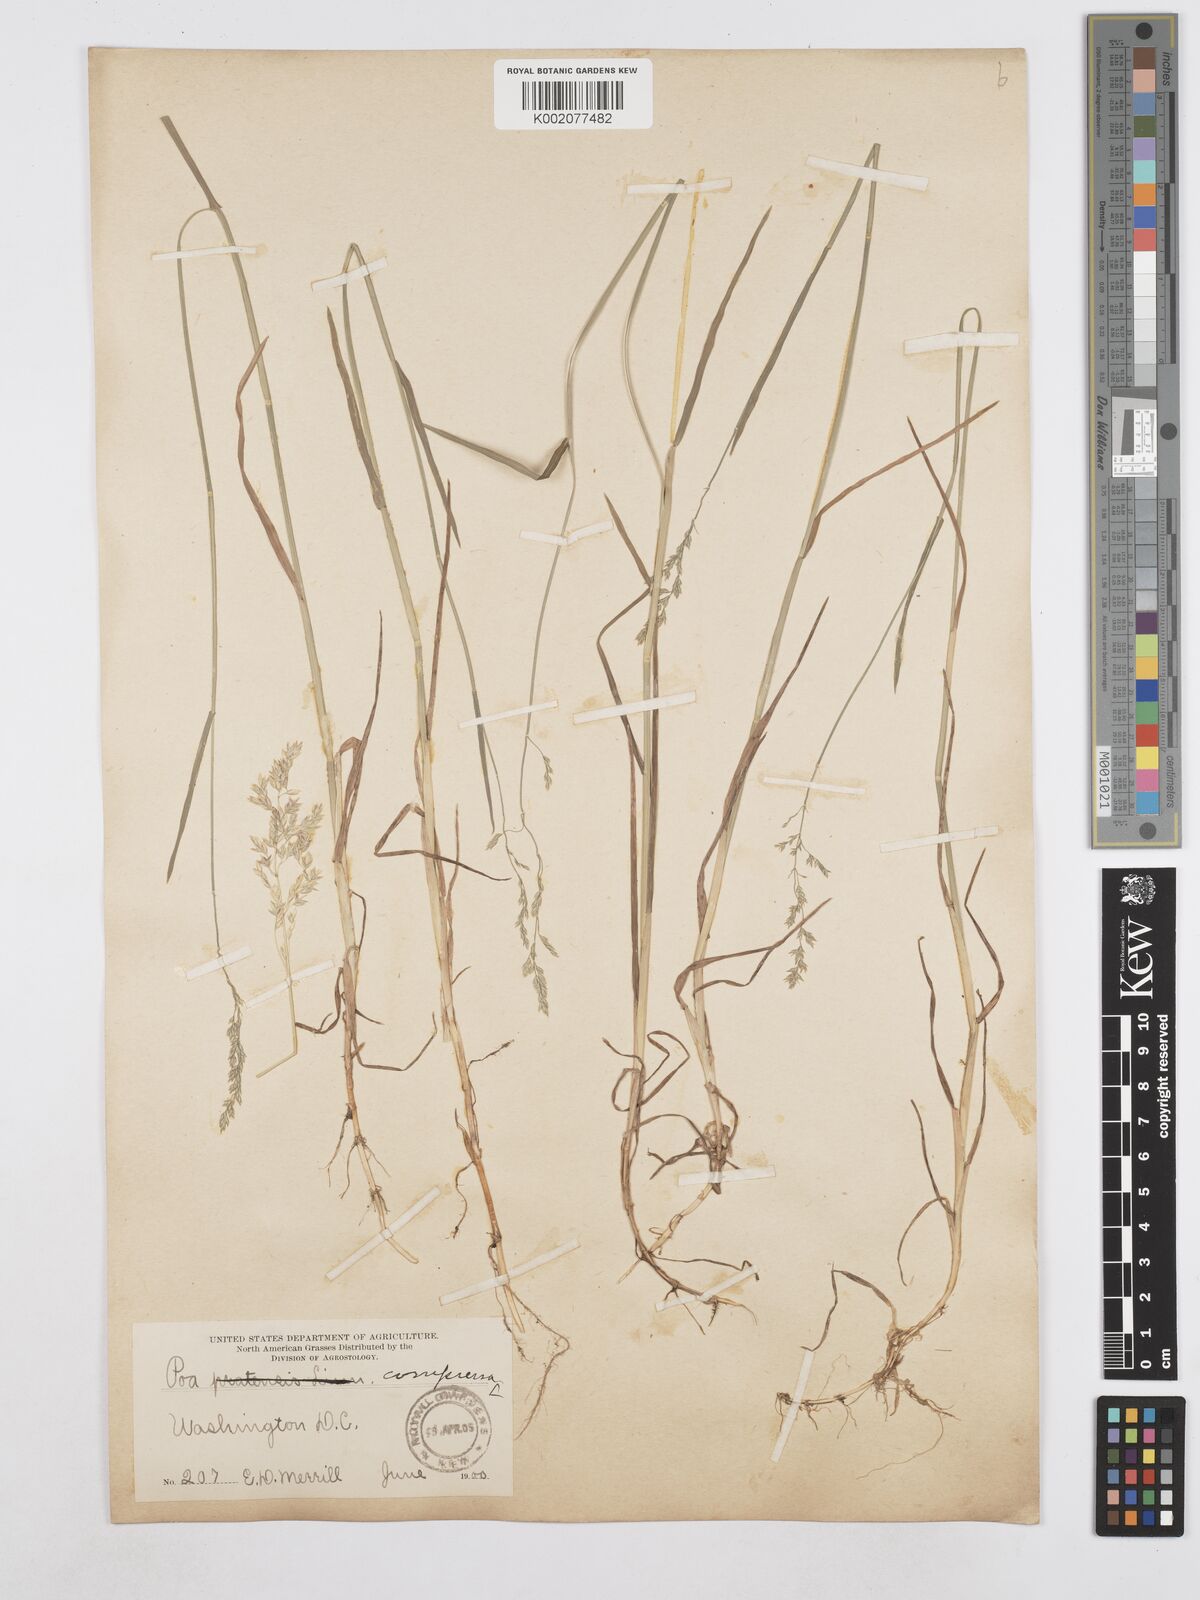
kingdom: Plantae
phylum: Tracheophyta
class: Liliopsida
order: Poales
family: Poaceae
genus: Poa
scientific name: Poa compressa
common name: Canada bluegrass
